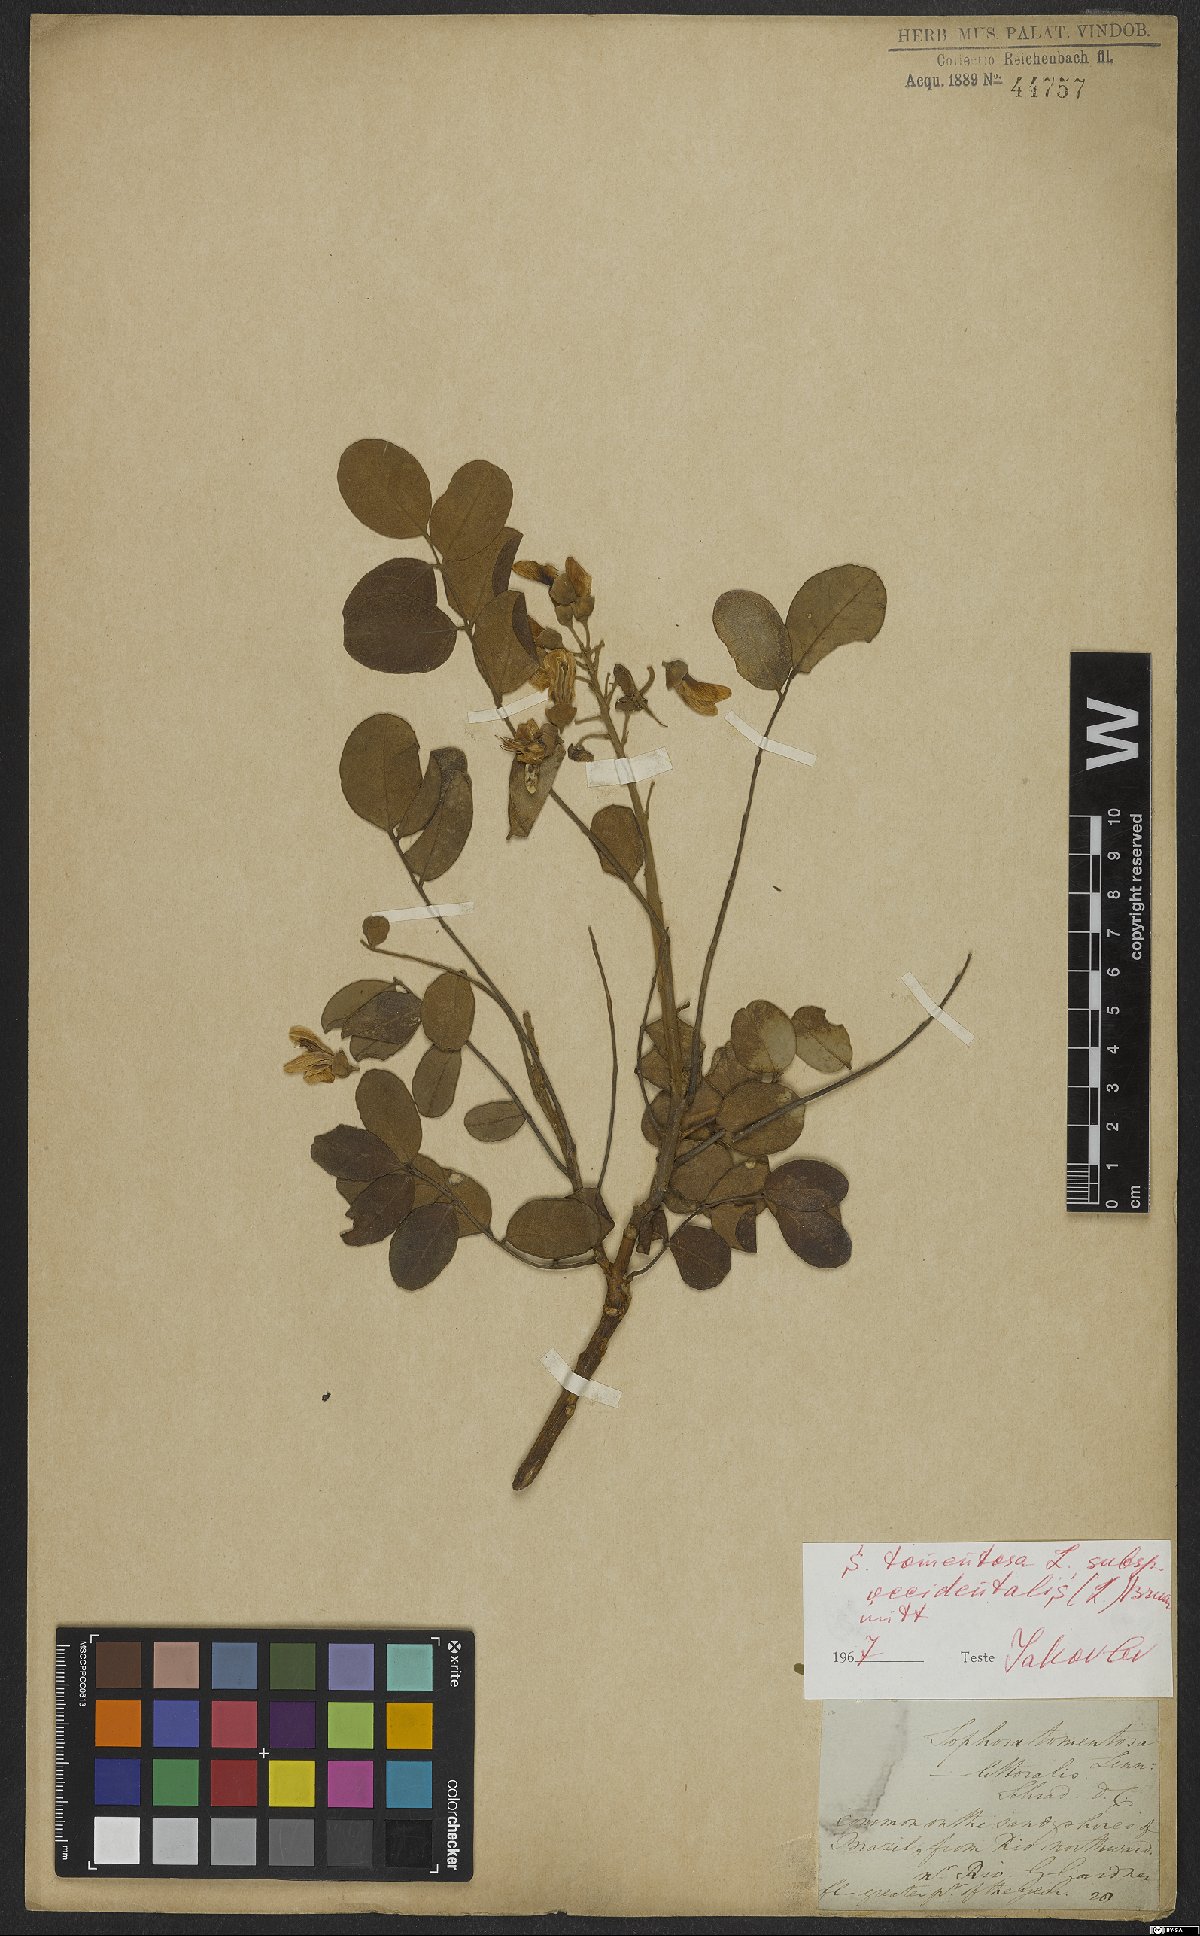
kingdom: Plantae
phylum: Tracheophyta
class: Magnoliopsida
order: Fabales
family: Fabaceae
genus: Sophora
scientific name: Sophora tomentosa
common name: Yellow necklacepod
